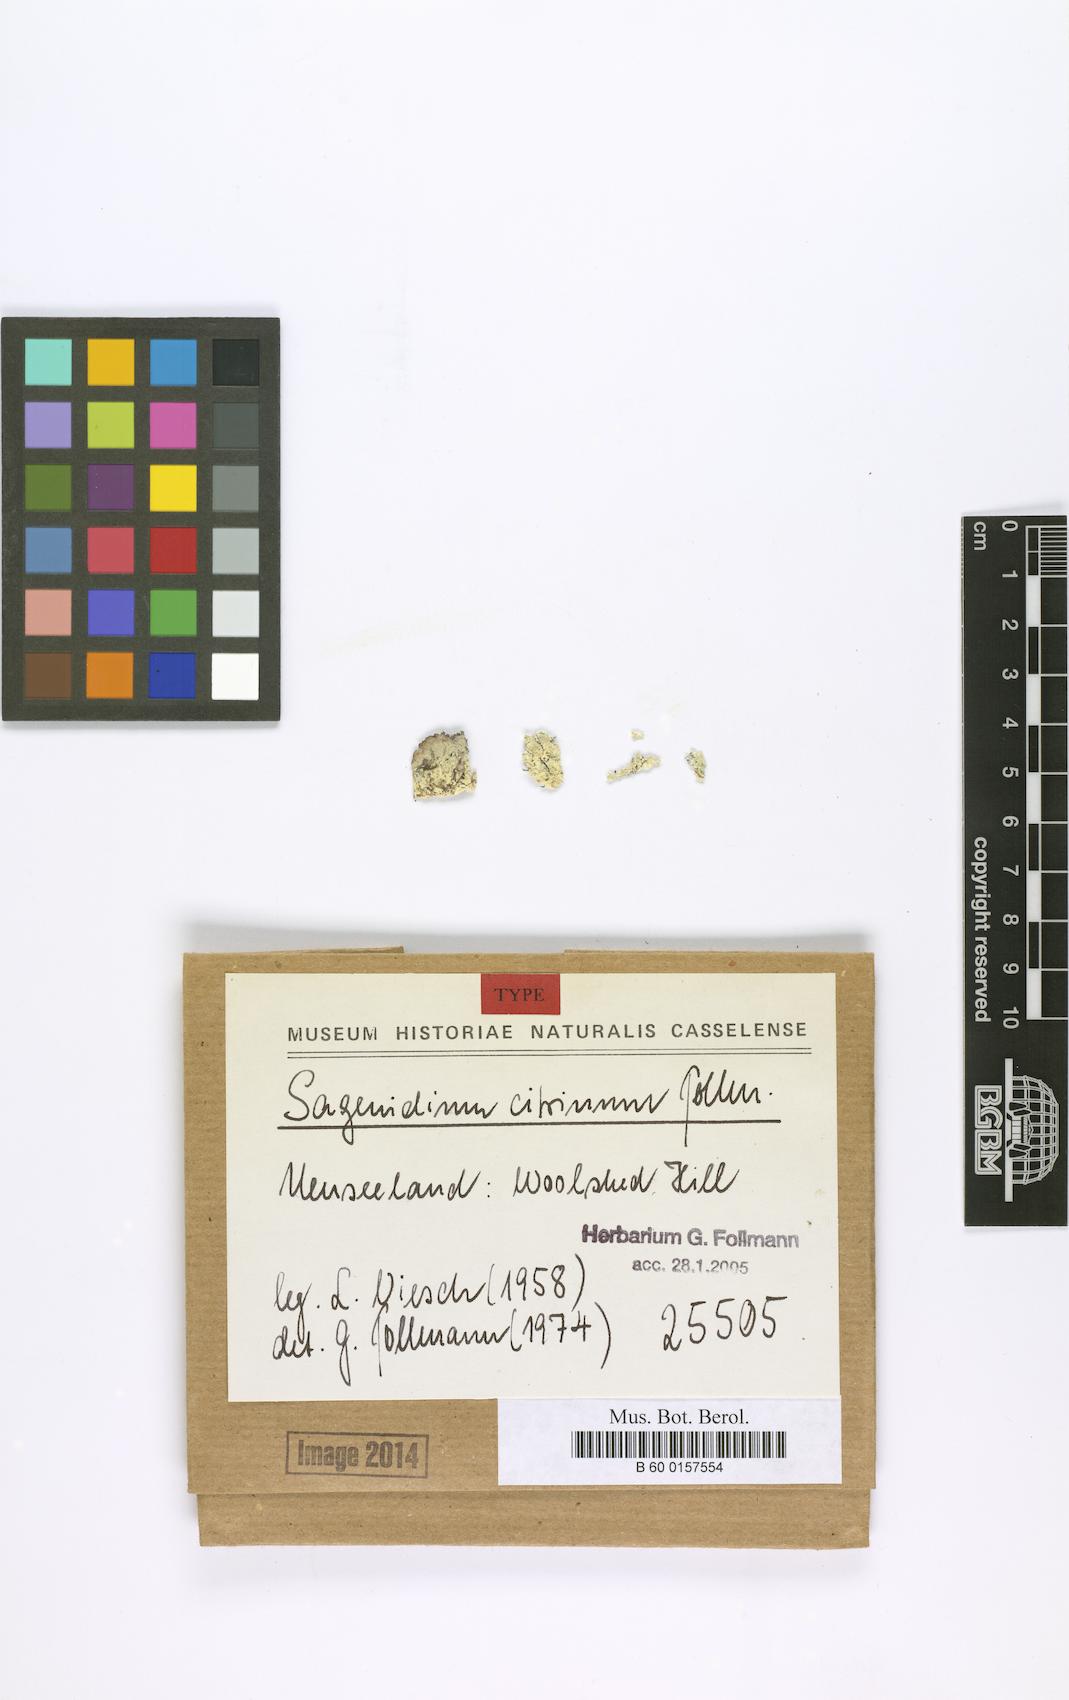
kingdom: Fungi
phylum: Ascomycota
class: Arthoniomycetes
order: Arthoniales
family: Roccellaceae
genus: Lecanactis
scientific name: Lecanactis citrina
